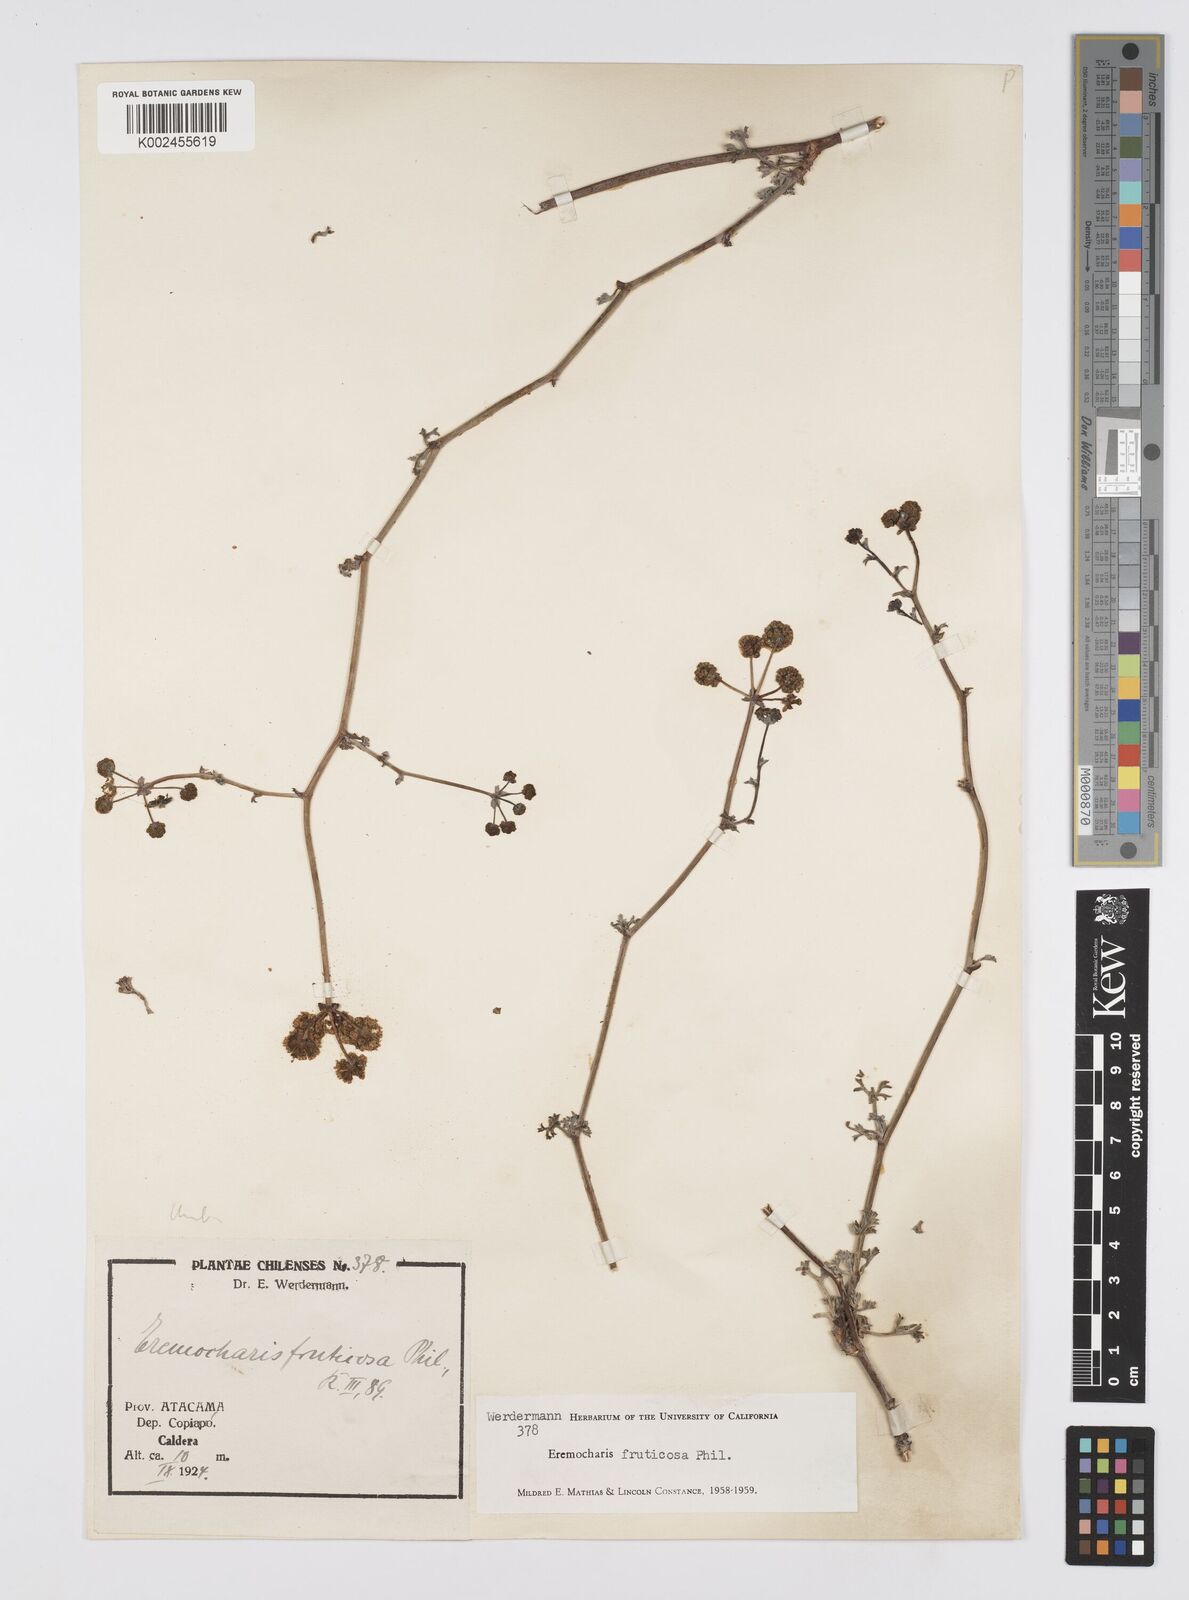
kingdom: Plantae
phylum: Tracheophyta
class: Magnoliopsida
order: Apiales
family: Apiaceae
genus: Eremocharis
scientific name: Eremocharis fruticosa
